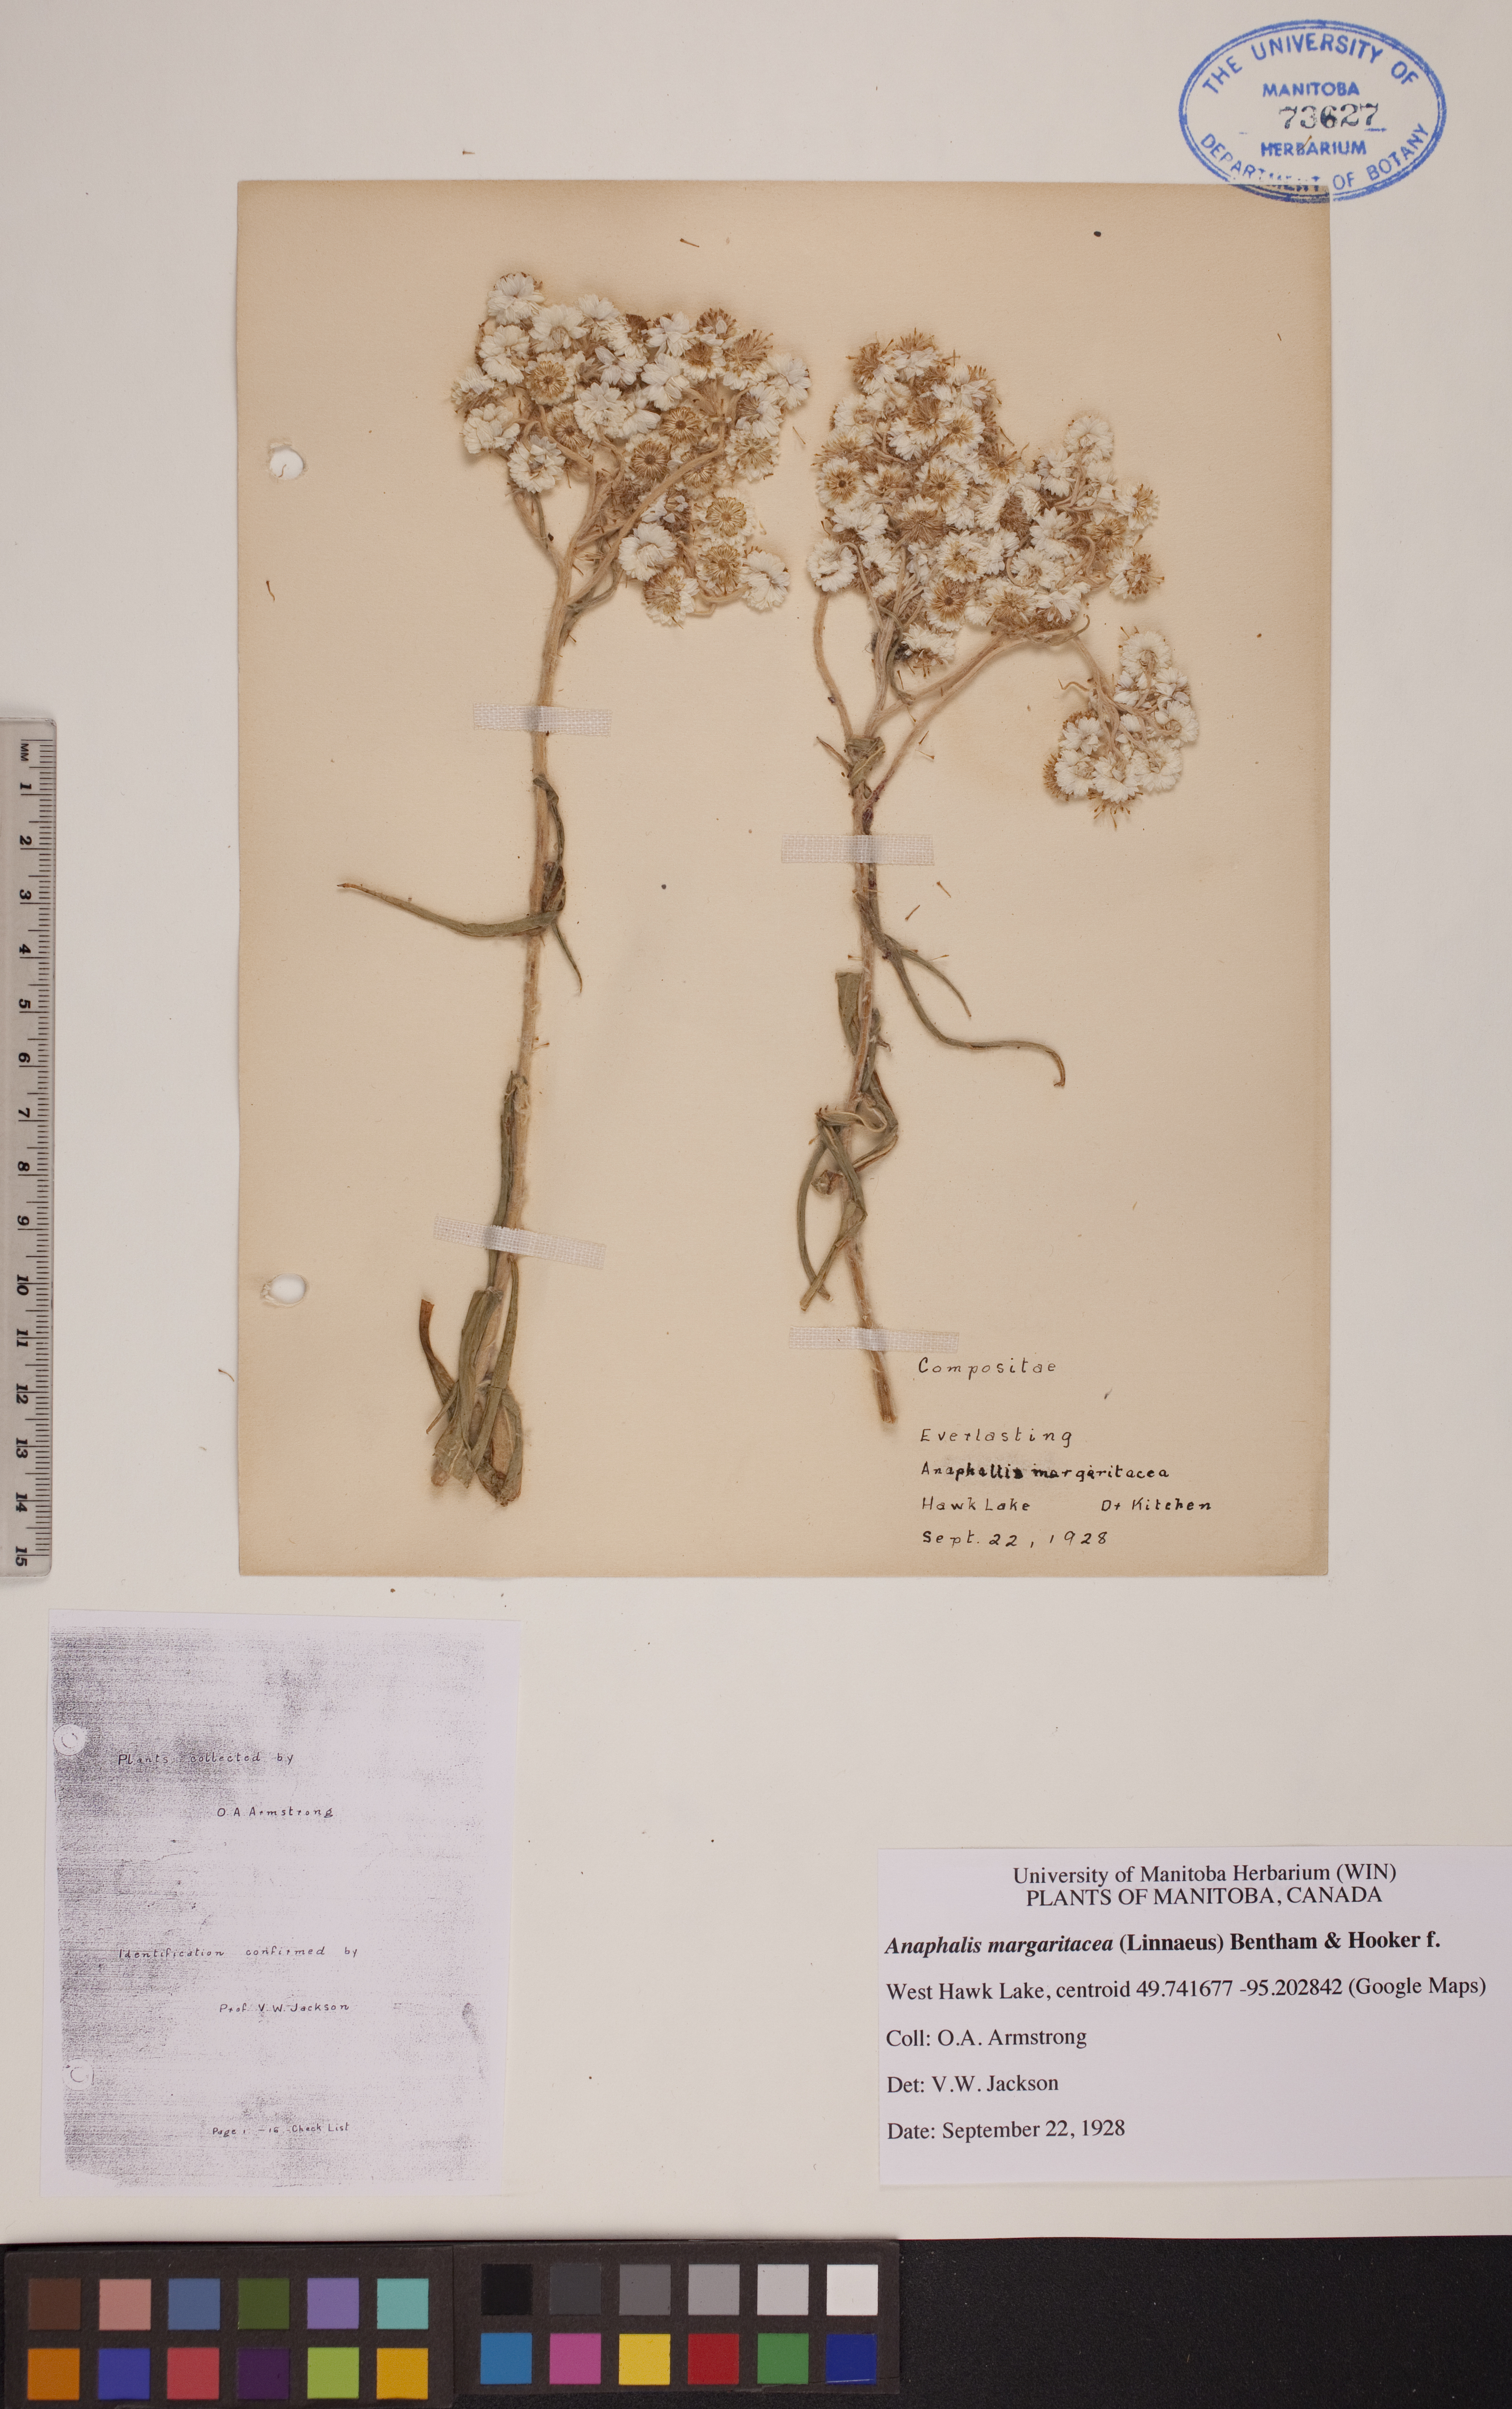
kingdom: Plantae
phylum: Tracheophyta
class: Magnoliopsida
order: Asterales
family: Asteraceae
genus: Anaphalis
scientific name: Anaphalis margaritacea
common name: Pearly everlasting
